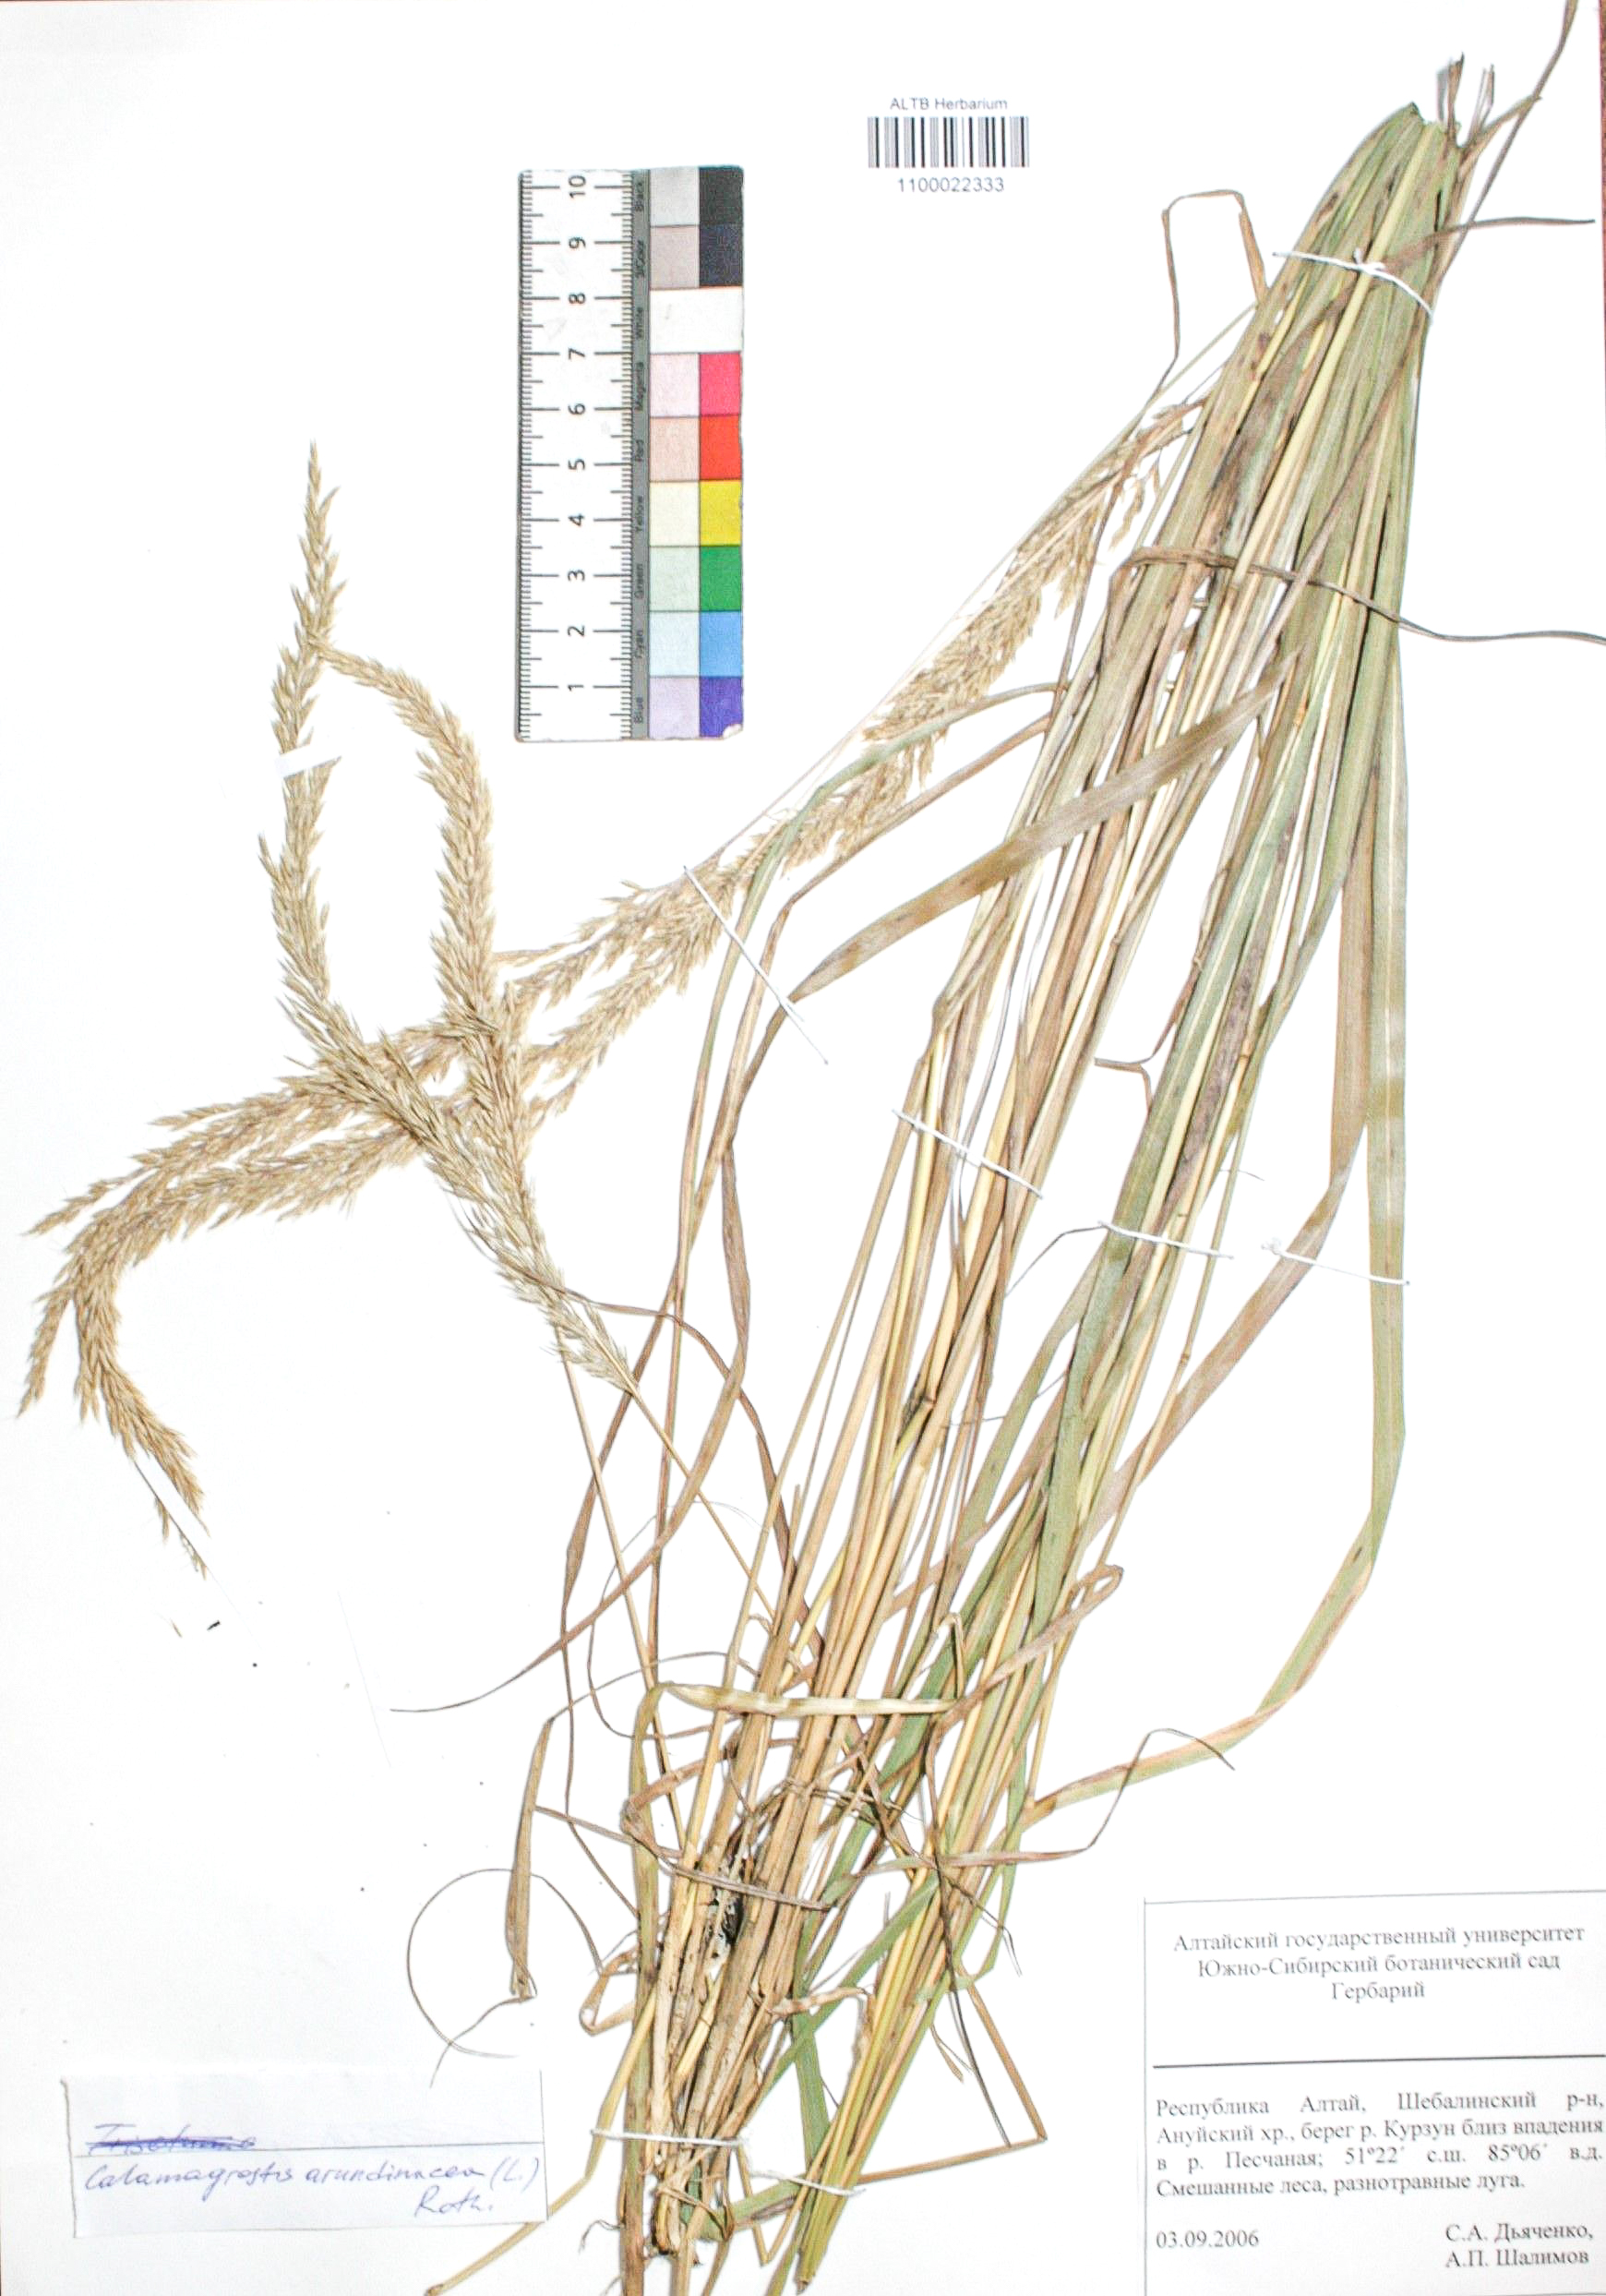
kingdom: Plantae
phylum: Tracheophyta
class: Liliopsida
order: Poales
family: Poaceae
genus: Calamagrostis
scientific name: Calamagrostis arundinacea
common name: Metskastik
